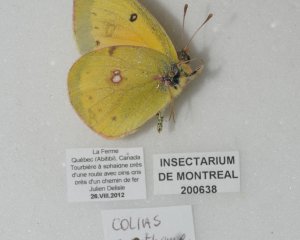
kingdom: Animalia
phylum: Arthropoda
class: Insecta
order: Lepidoptera
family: Pieridae
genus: Colias
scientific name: Colias eurytheme
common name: Orange Sulphur
